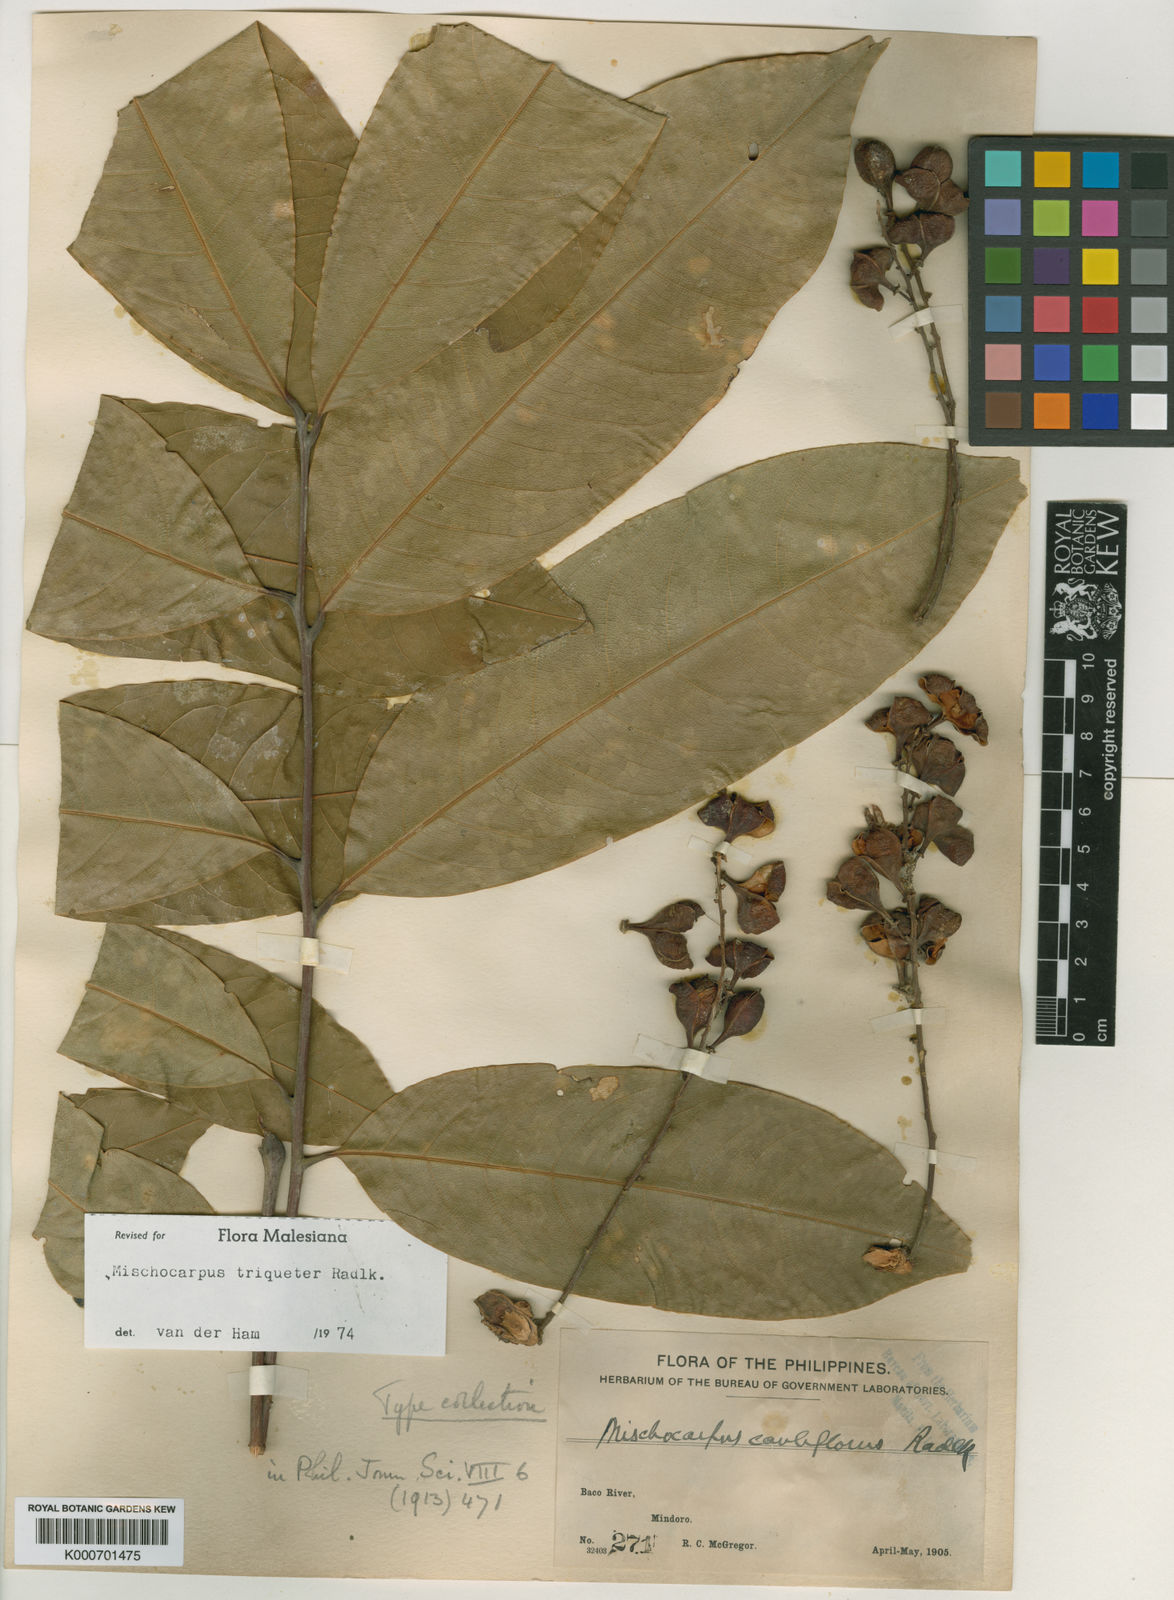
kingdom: Plantae
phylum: Tracheophyta
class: Magnoliopsida
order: Sapindales
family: Sapindaceae
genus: Mischocarpus
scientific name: Mischocarpus triqueter
